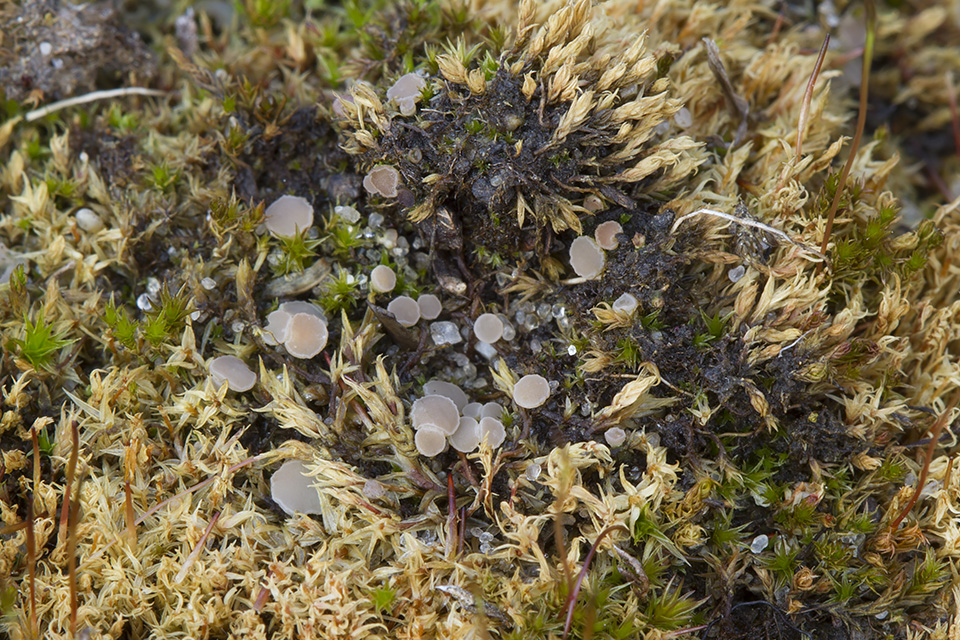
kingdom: Fungi
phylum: Ascomycota
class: Leotiomycetes
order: Helotiales
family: Helotiaceae
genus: Bryoscyphus
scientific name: Bryoscyphus dicrani
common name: bladmos-stilkskive
